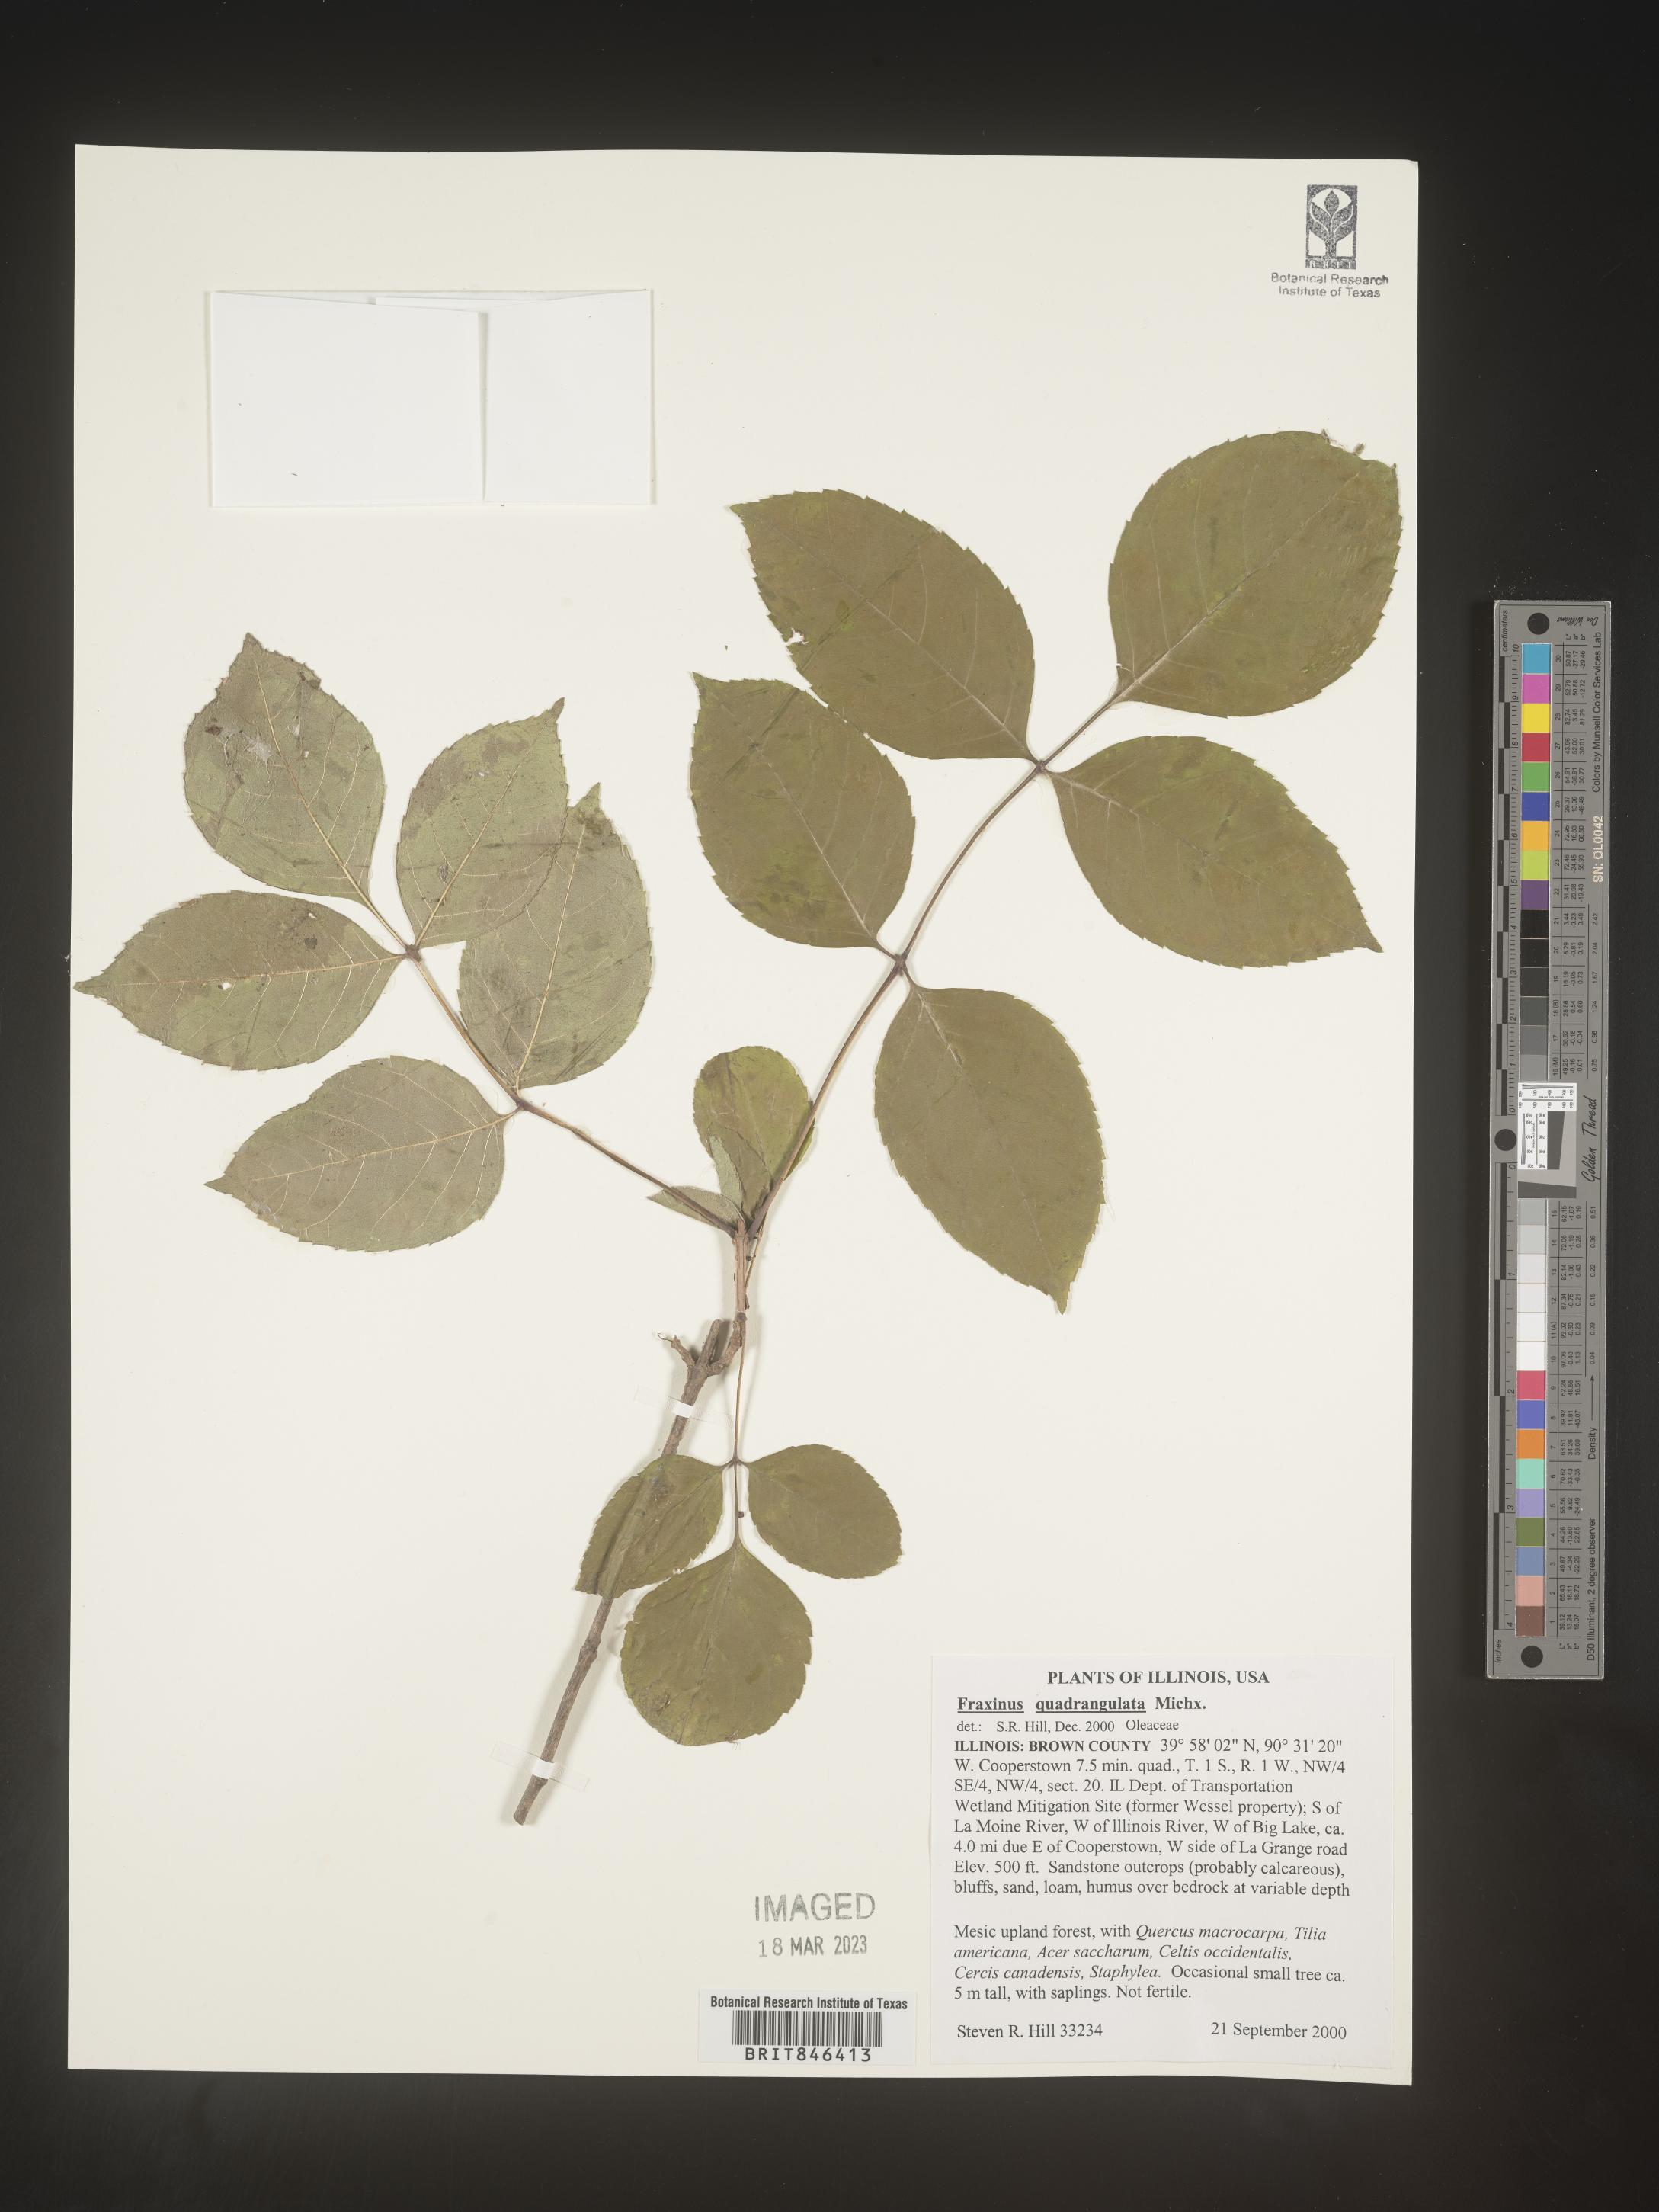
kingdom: Plantae
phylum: Tracheophyta
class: Magnoliopsida
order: Lamiales
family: Oleaceae
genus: Fraxinus
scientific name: Fraxinus quadrangulata
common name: Blue ash
